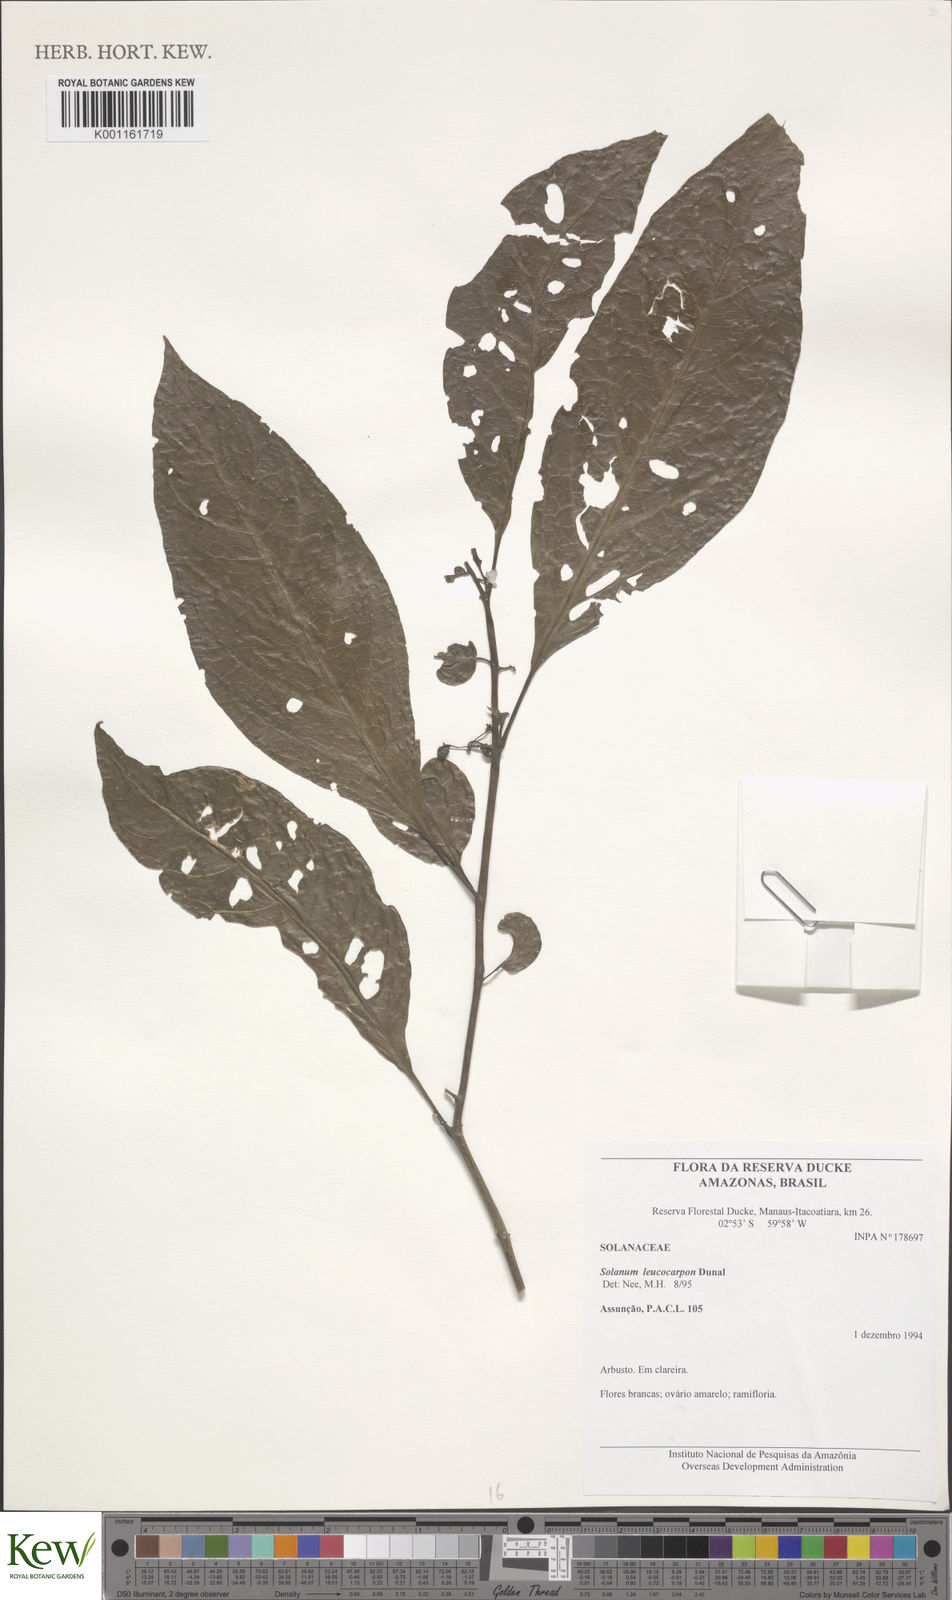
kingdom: Plantae
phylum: Tracheophyta
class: Magnoliopsida
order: Solanales
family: Solanaceae
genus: Solanum
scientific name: Solanum leucocarpon
